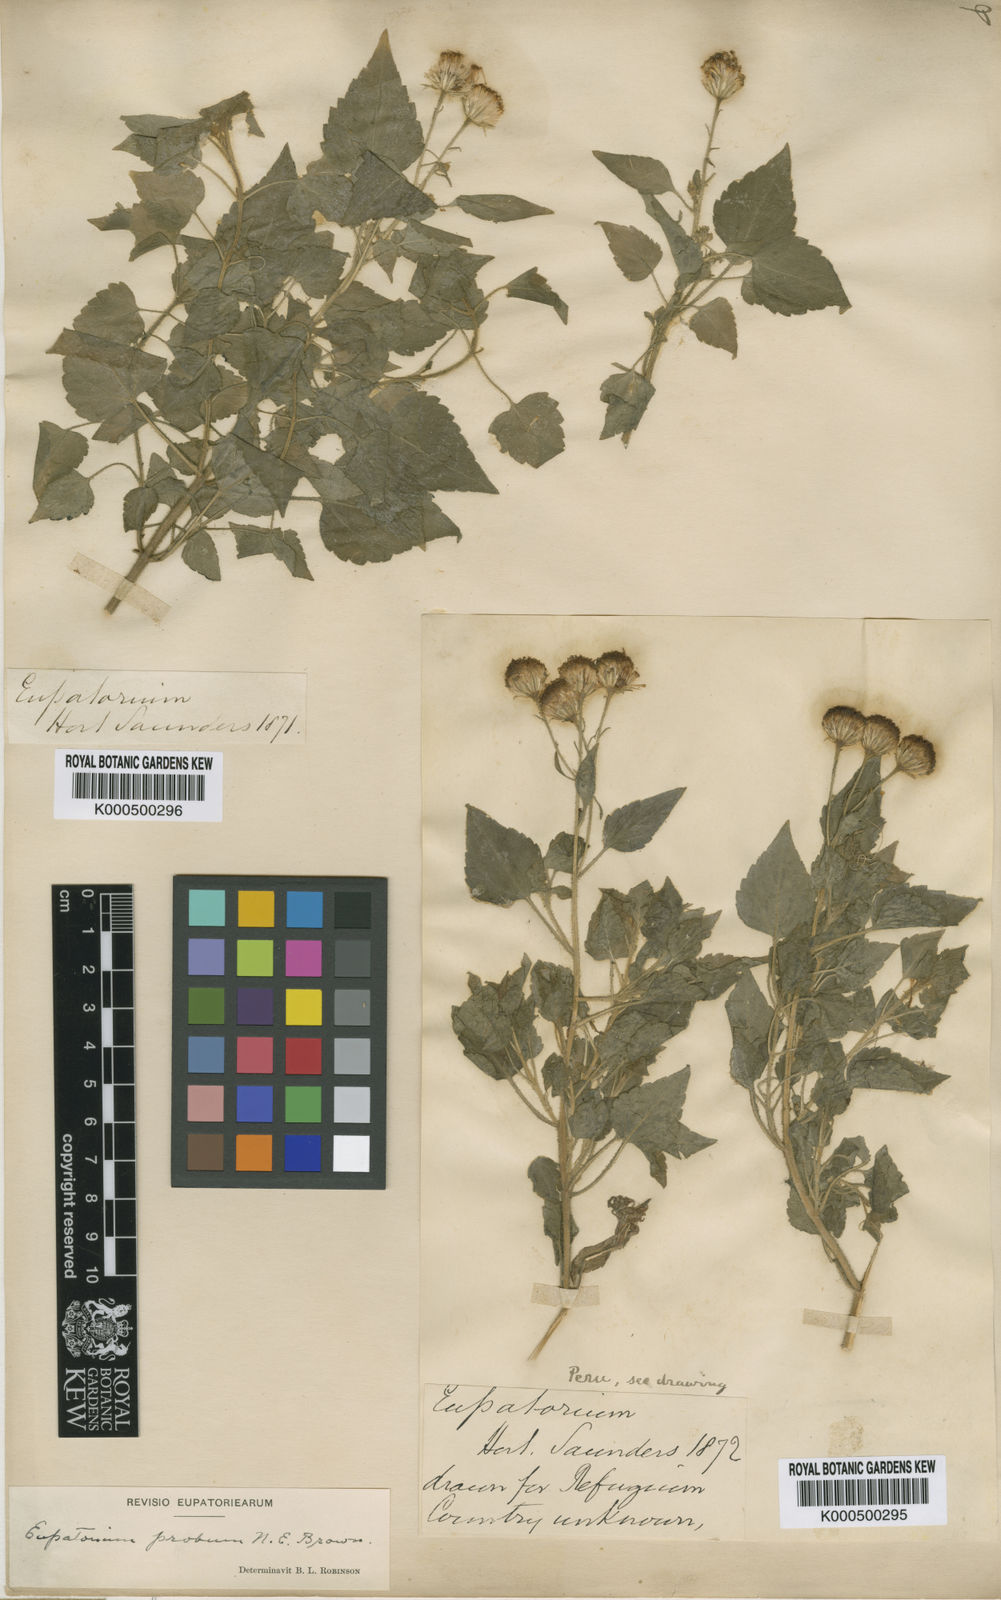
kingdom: Plantae
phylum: Tracheophyta
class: Magnoliopsida
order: Asterales
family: Asteraceae
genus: Ageratina
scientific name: Ageratina proba
